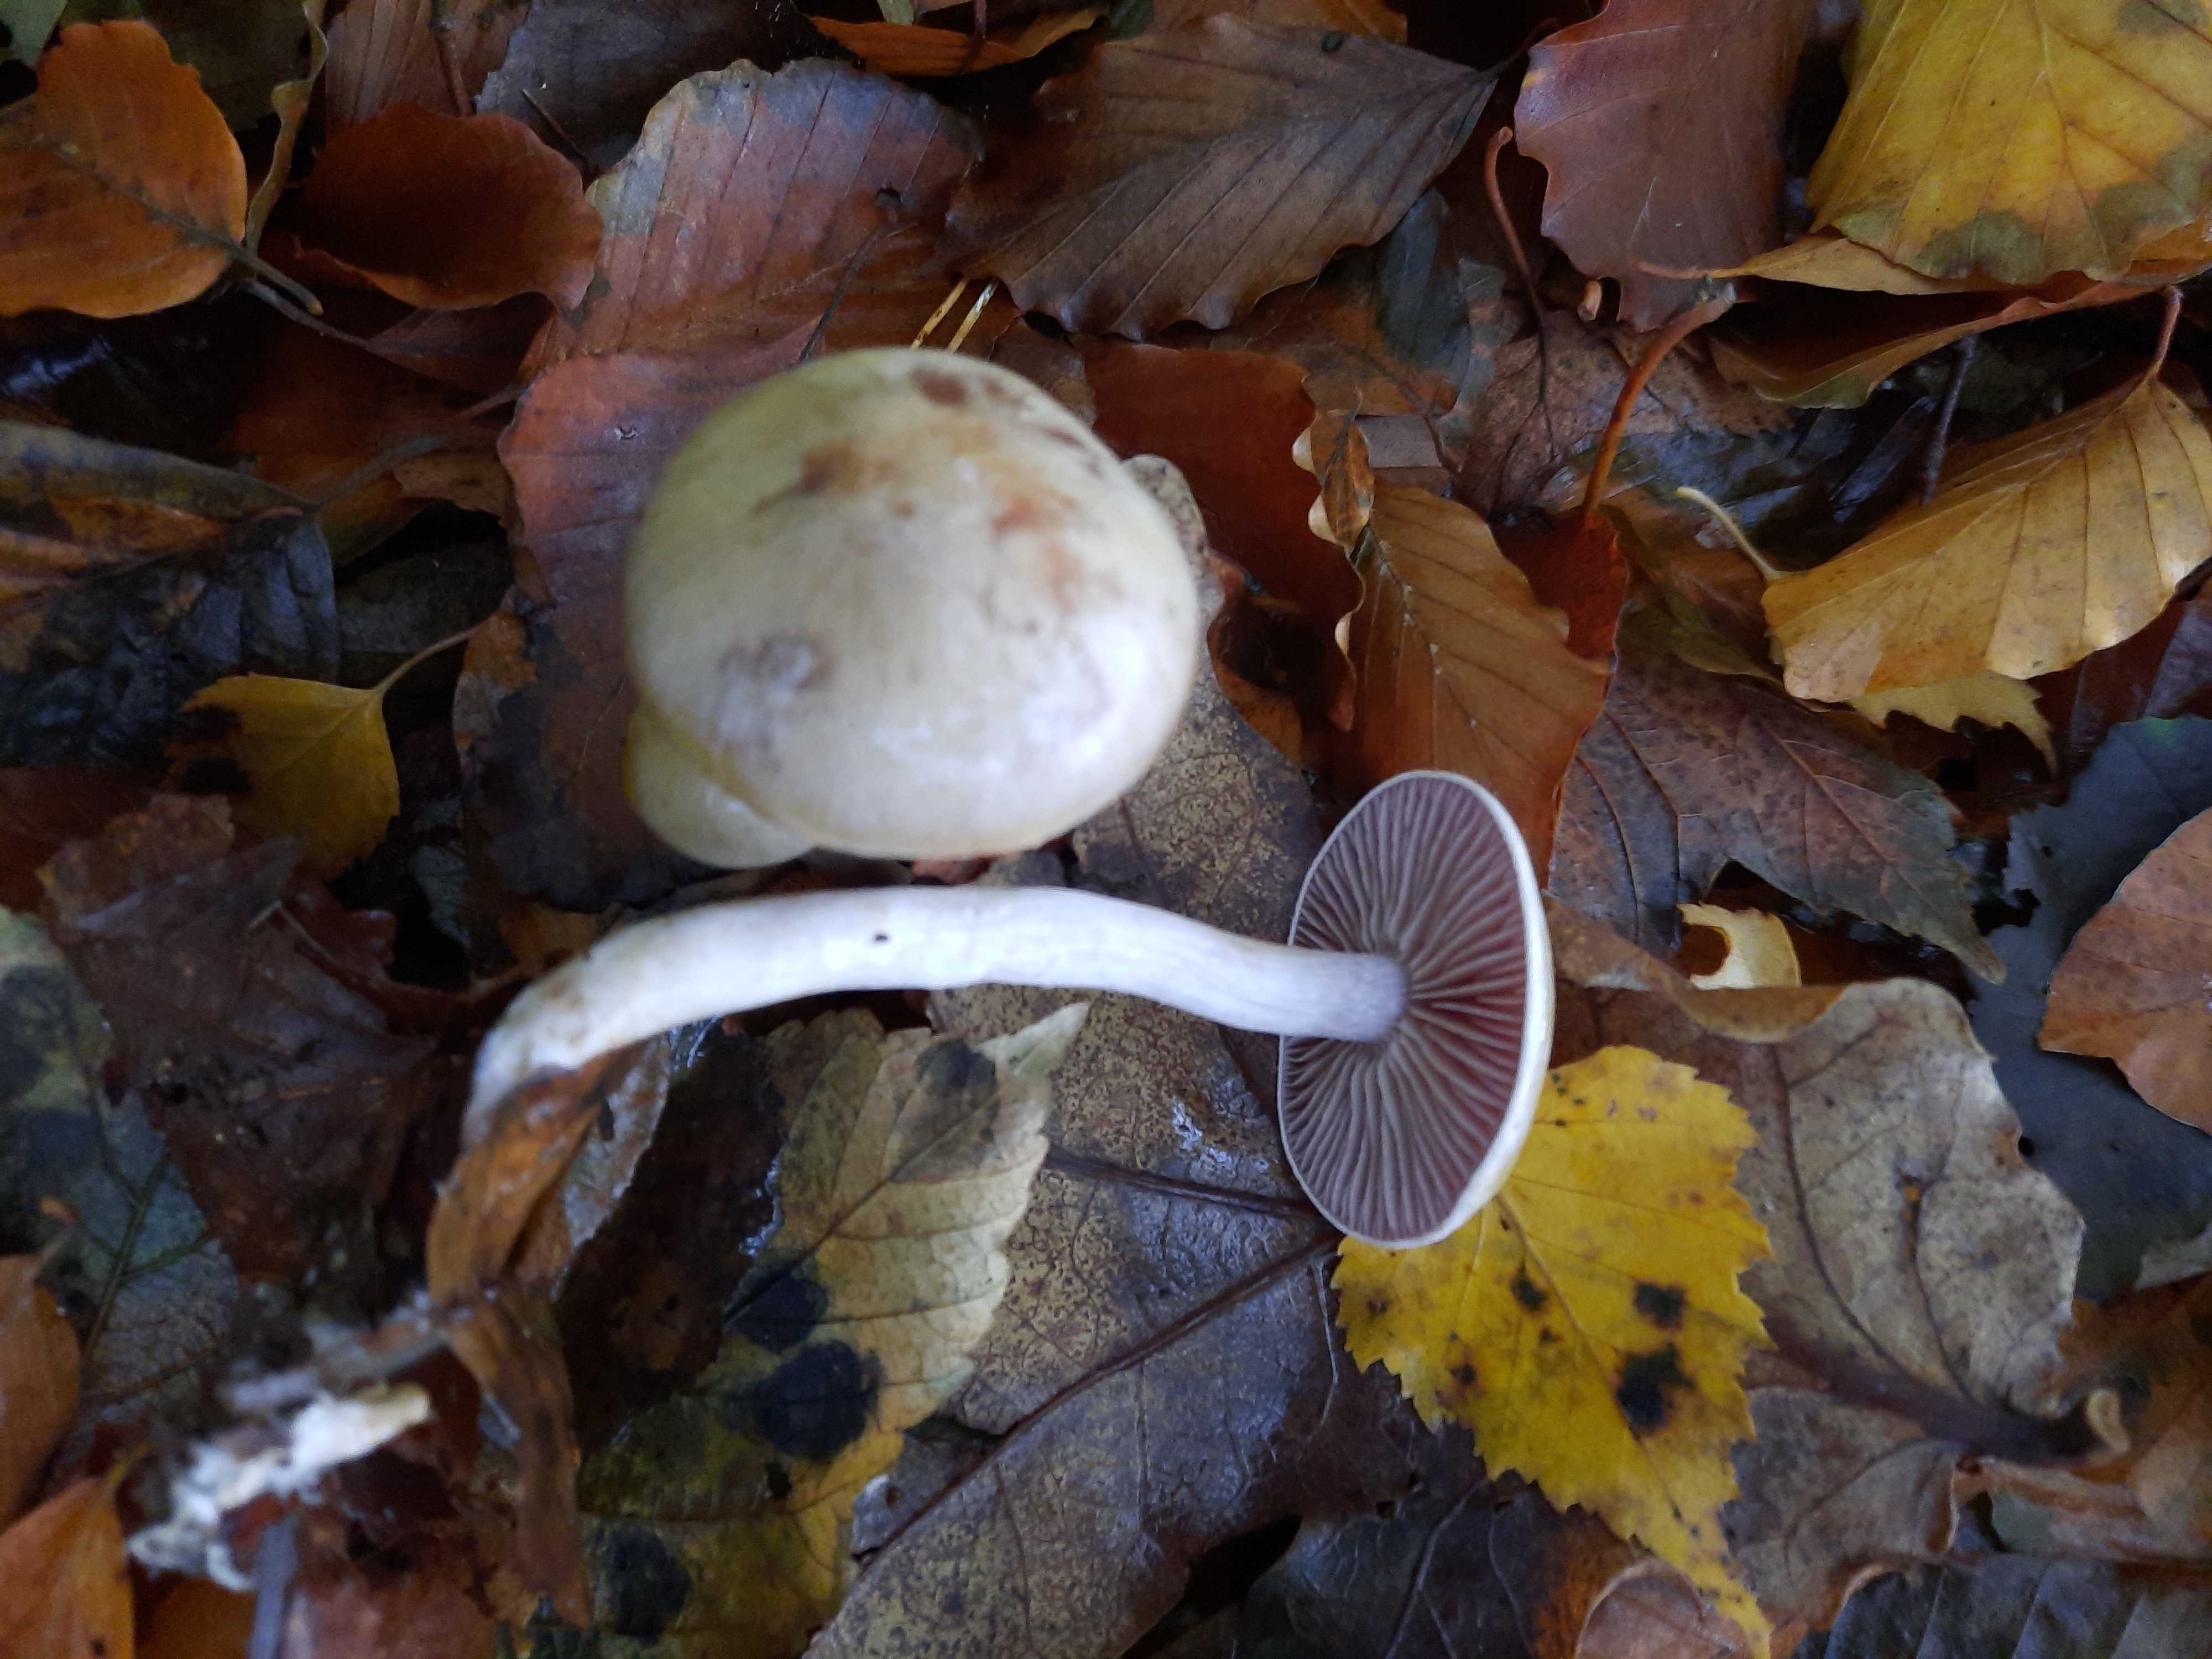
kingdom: Fungi
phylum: Basidiomycota
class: Agaricomycetes
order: Agaricales
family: Cortinariaceae
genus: Cortinarius
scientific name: Cortinarius
